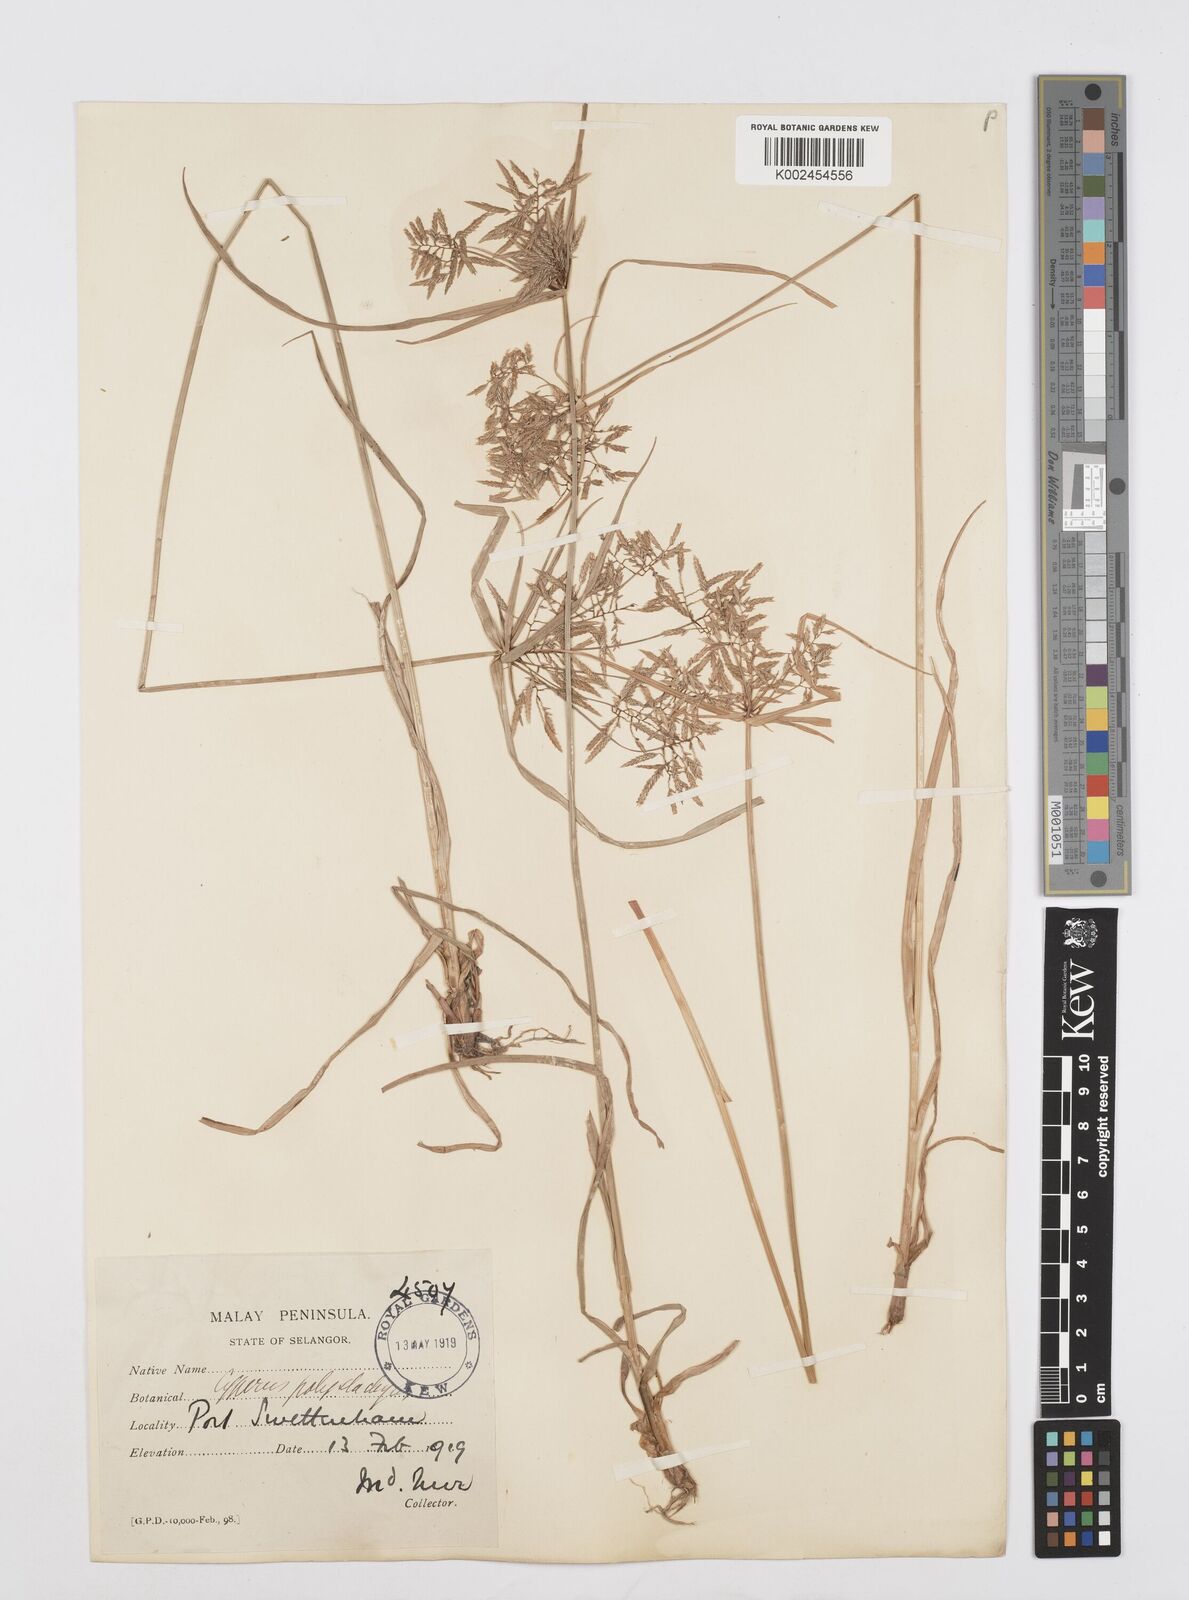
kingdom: Plantae
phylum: Tracheophyta
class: Liliopsida
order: Poales
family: Cyperaceae
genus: Cyperus
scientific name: Cyperus polystachyos
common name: Bunchy flat sedge
